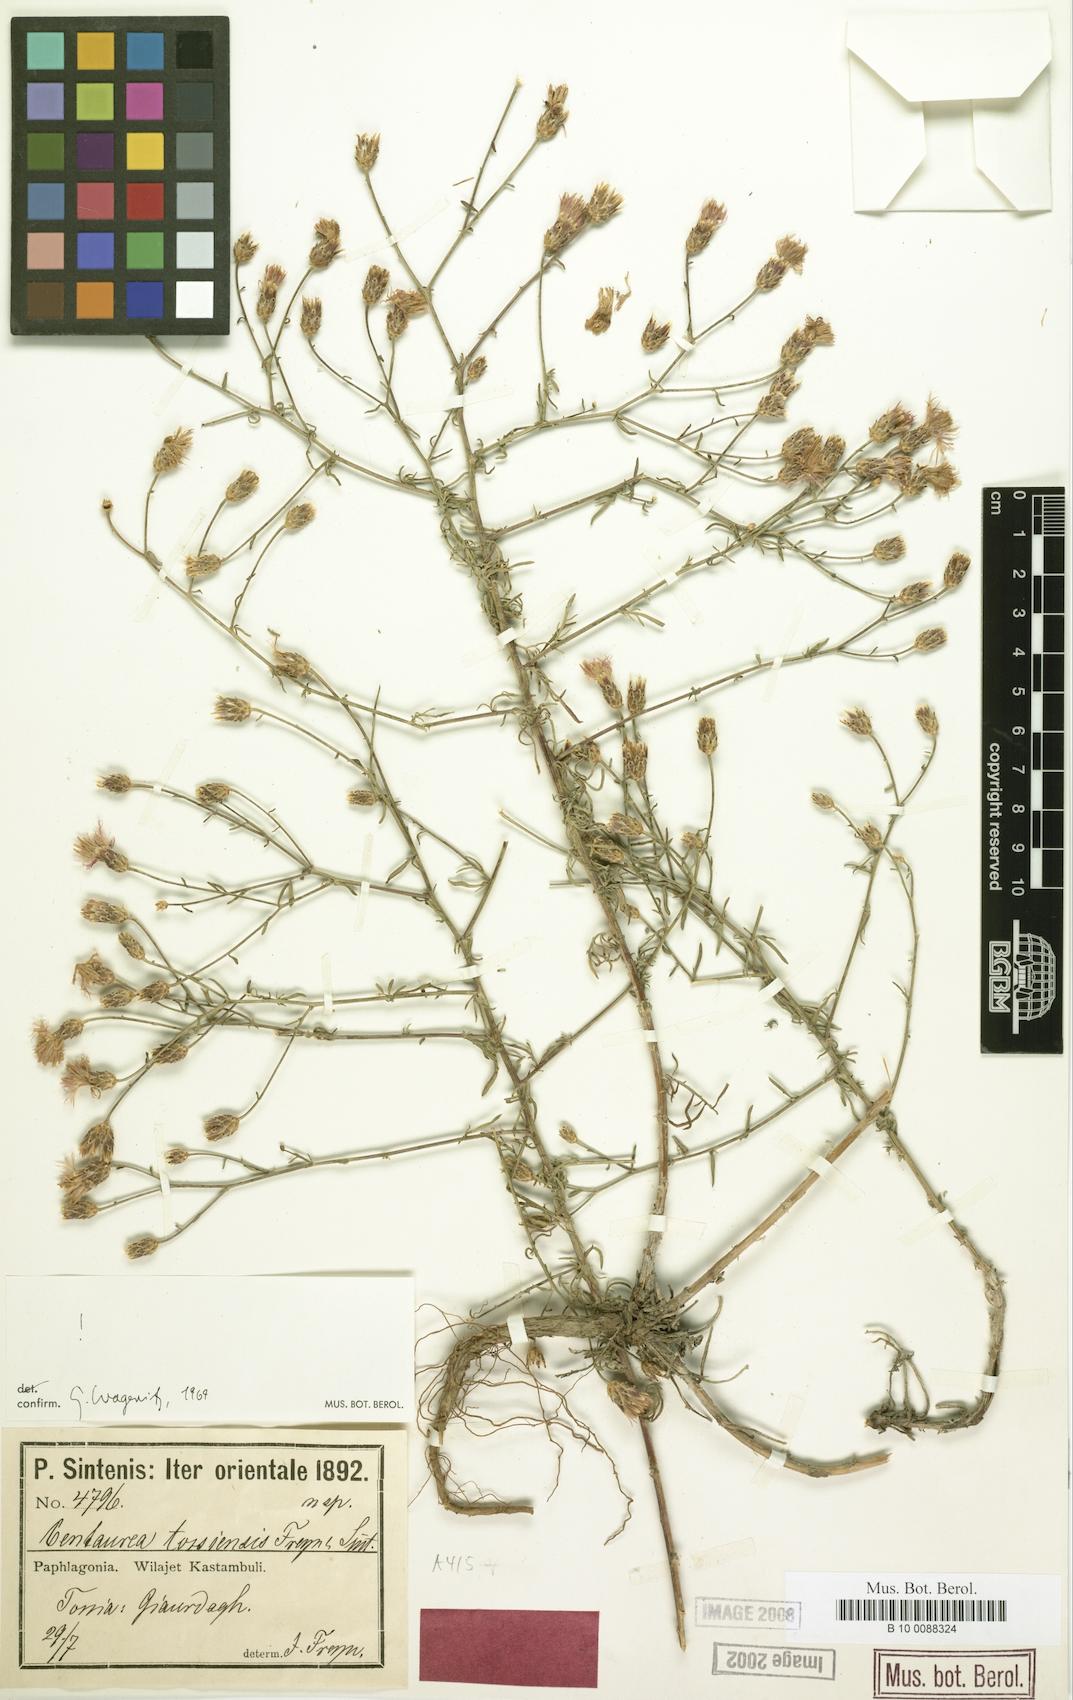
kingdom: Plantae
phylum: Tracheophyta
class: Magnoliopsida
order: Asterales
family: Asteraceae
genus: Centaurea
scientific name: Centaurea tossiensis
